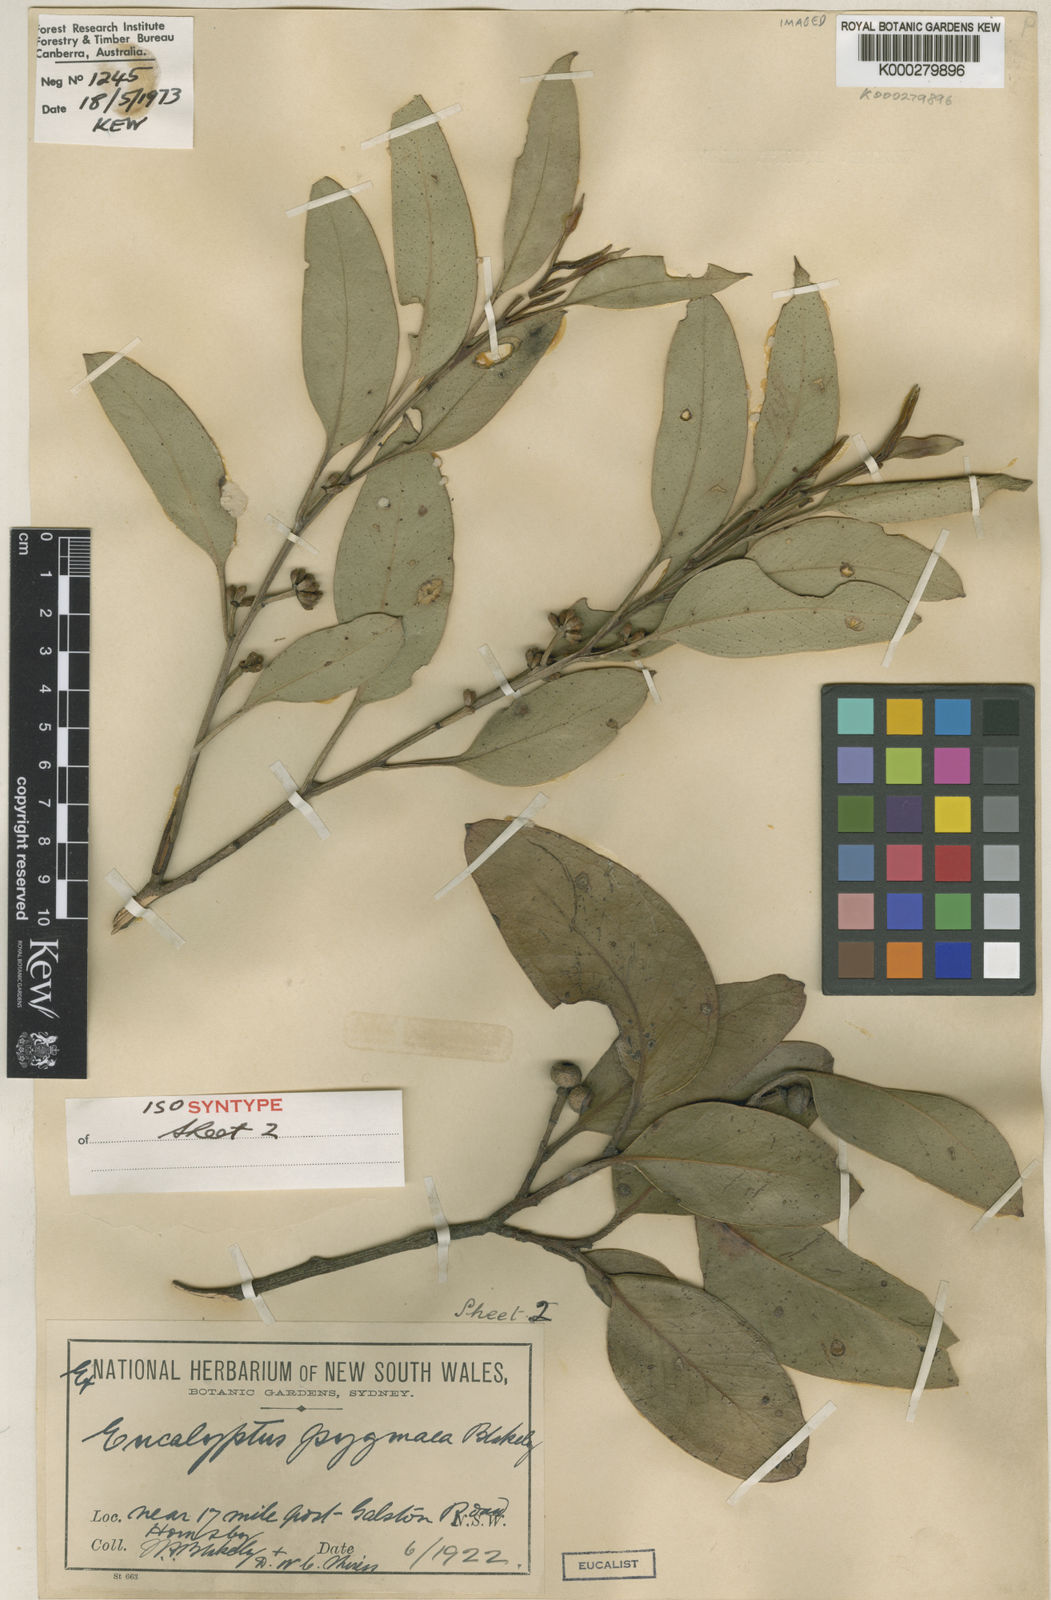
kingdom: Plantae
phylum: Tracheophyta
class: Magnoliopsida
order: Myrtales
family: Myrtaceae
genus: Eucalyptus
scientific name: Eucalyptus pygmaea
